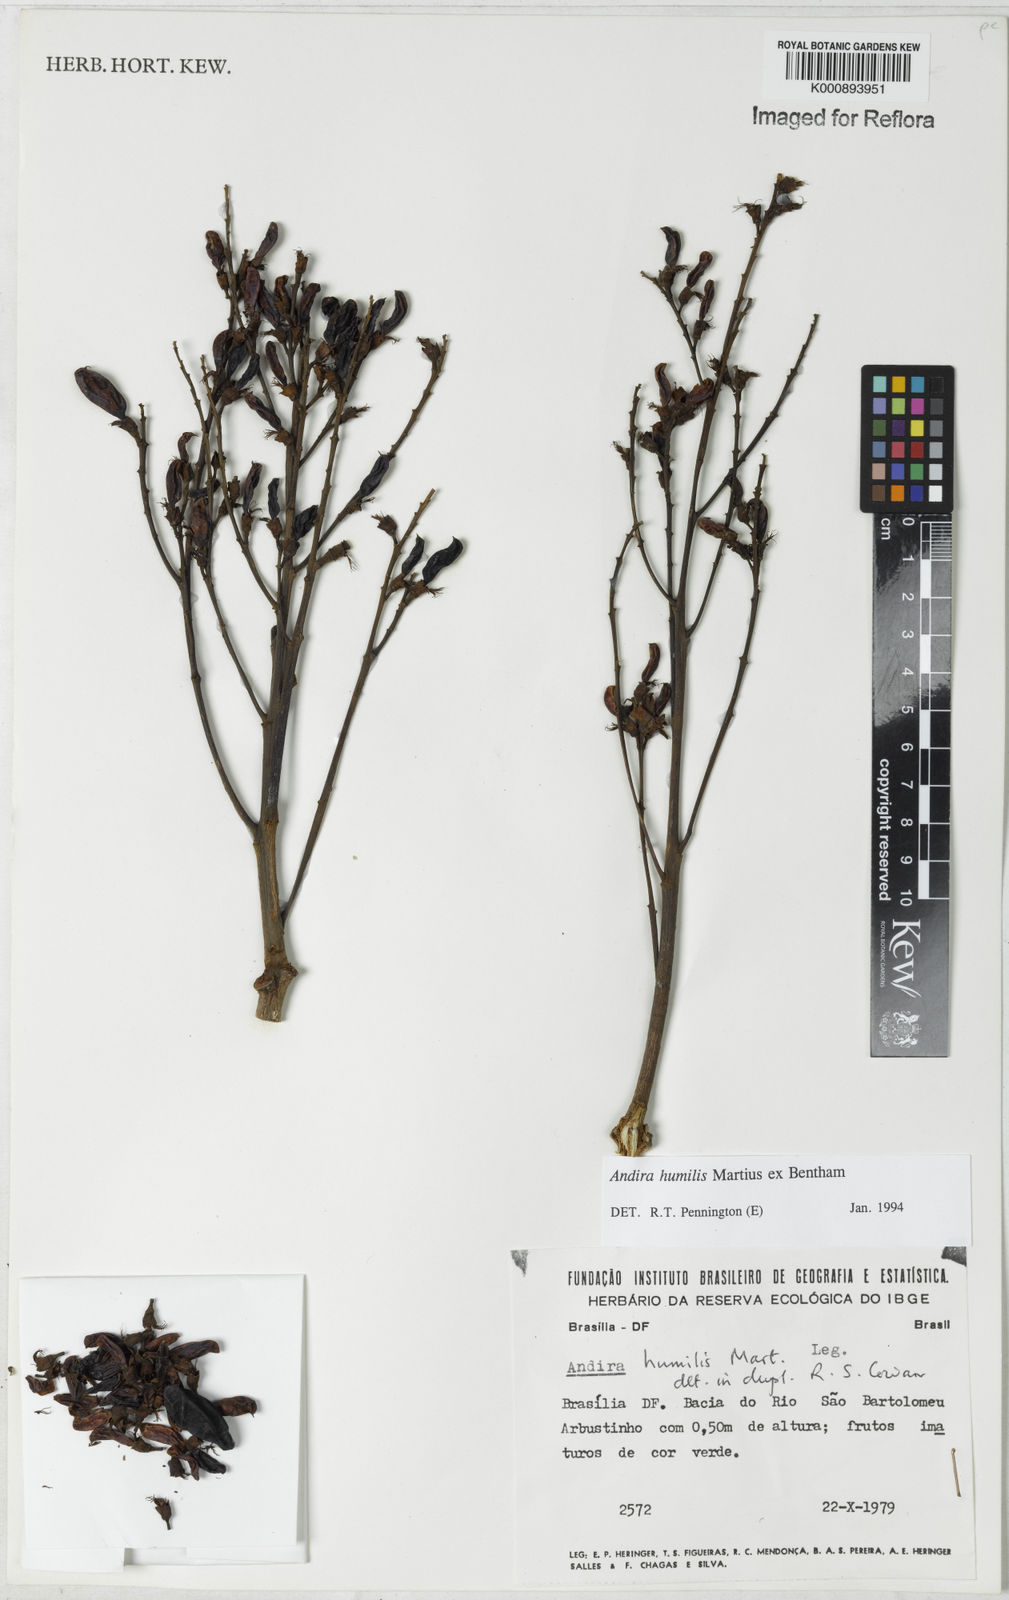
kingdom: Plantae
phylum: Tracheophyta
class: Magnoliopsida
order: Fabales
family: Fabaceae
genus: Andira
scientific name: Andira humilis
